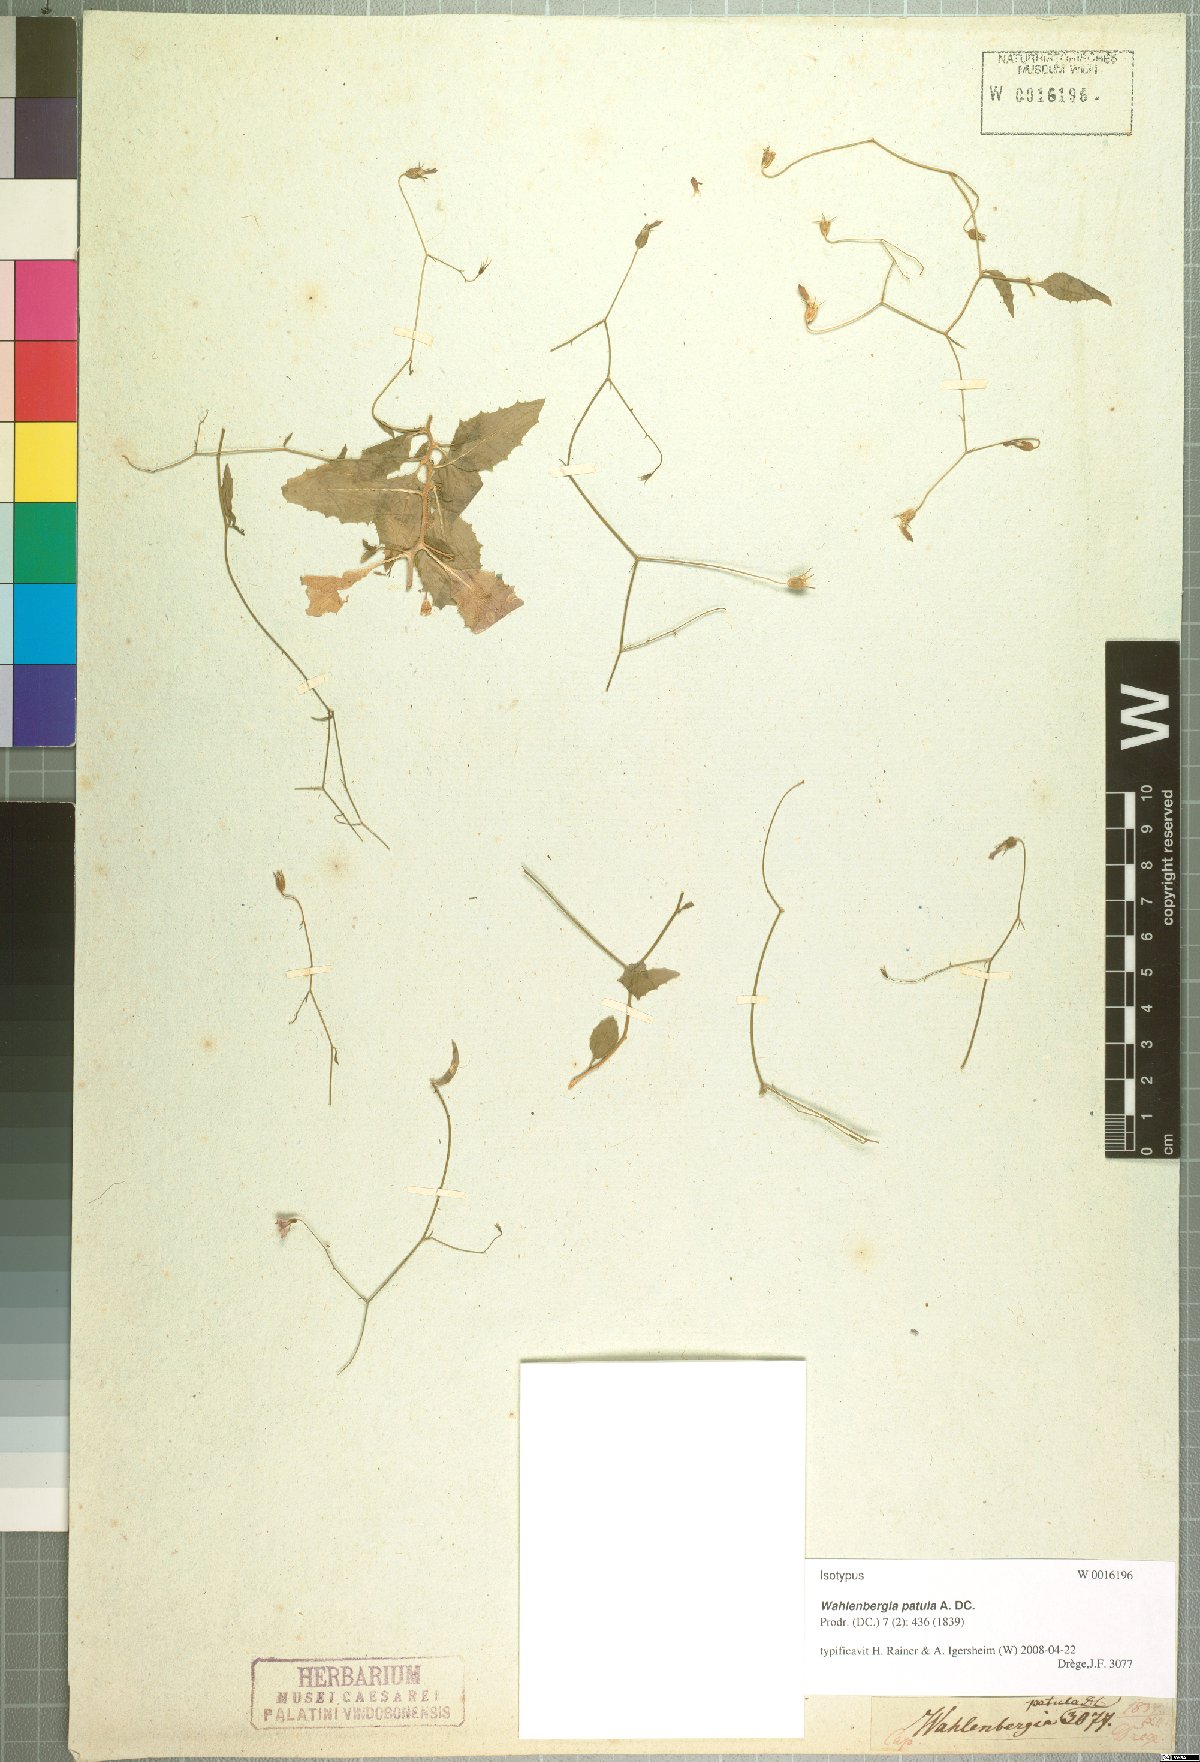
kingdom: Plantae
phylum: Tracheophyta
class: Magnoliopsida
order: Asterales
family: Campanulaceae
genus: Wahlenbergia
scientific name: Wahlenbergia patula
